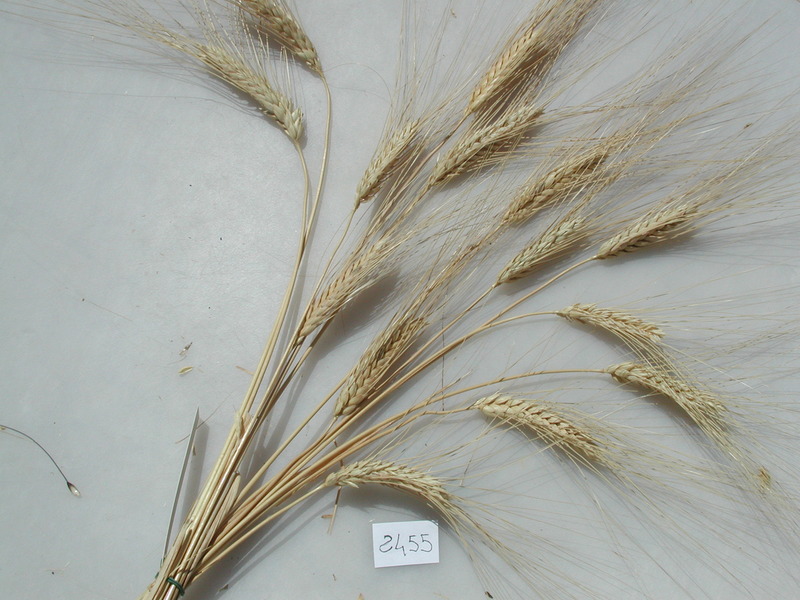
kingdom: Plantae
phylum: Tracheophyta
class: Liliopsida
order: Poales
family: Poaceae
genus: Triticum
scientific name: Triticum turgidum
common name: Wheat
